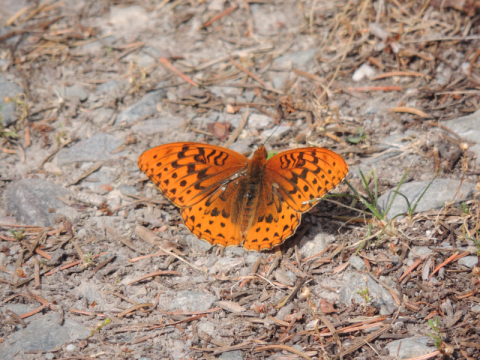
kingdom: Animalia
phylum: Arthropoda
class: Insecta
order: Lepidoptera
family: Nymphalidae
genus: Speyeria
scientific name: Speyeria atlantis
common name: Northwestern Fritillary
